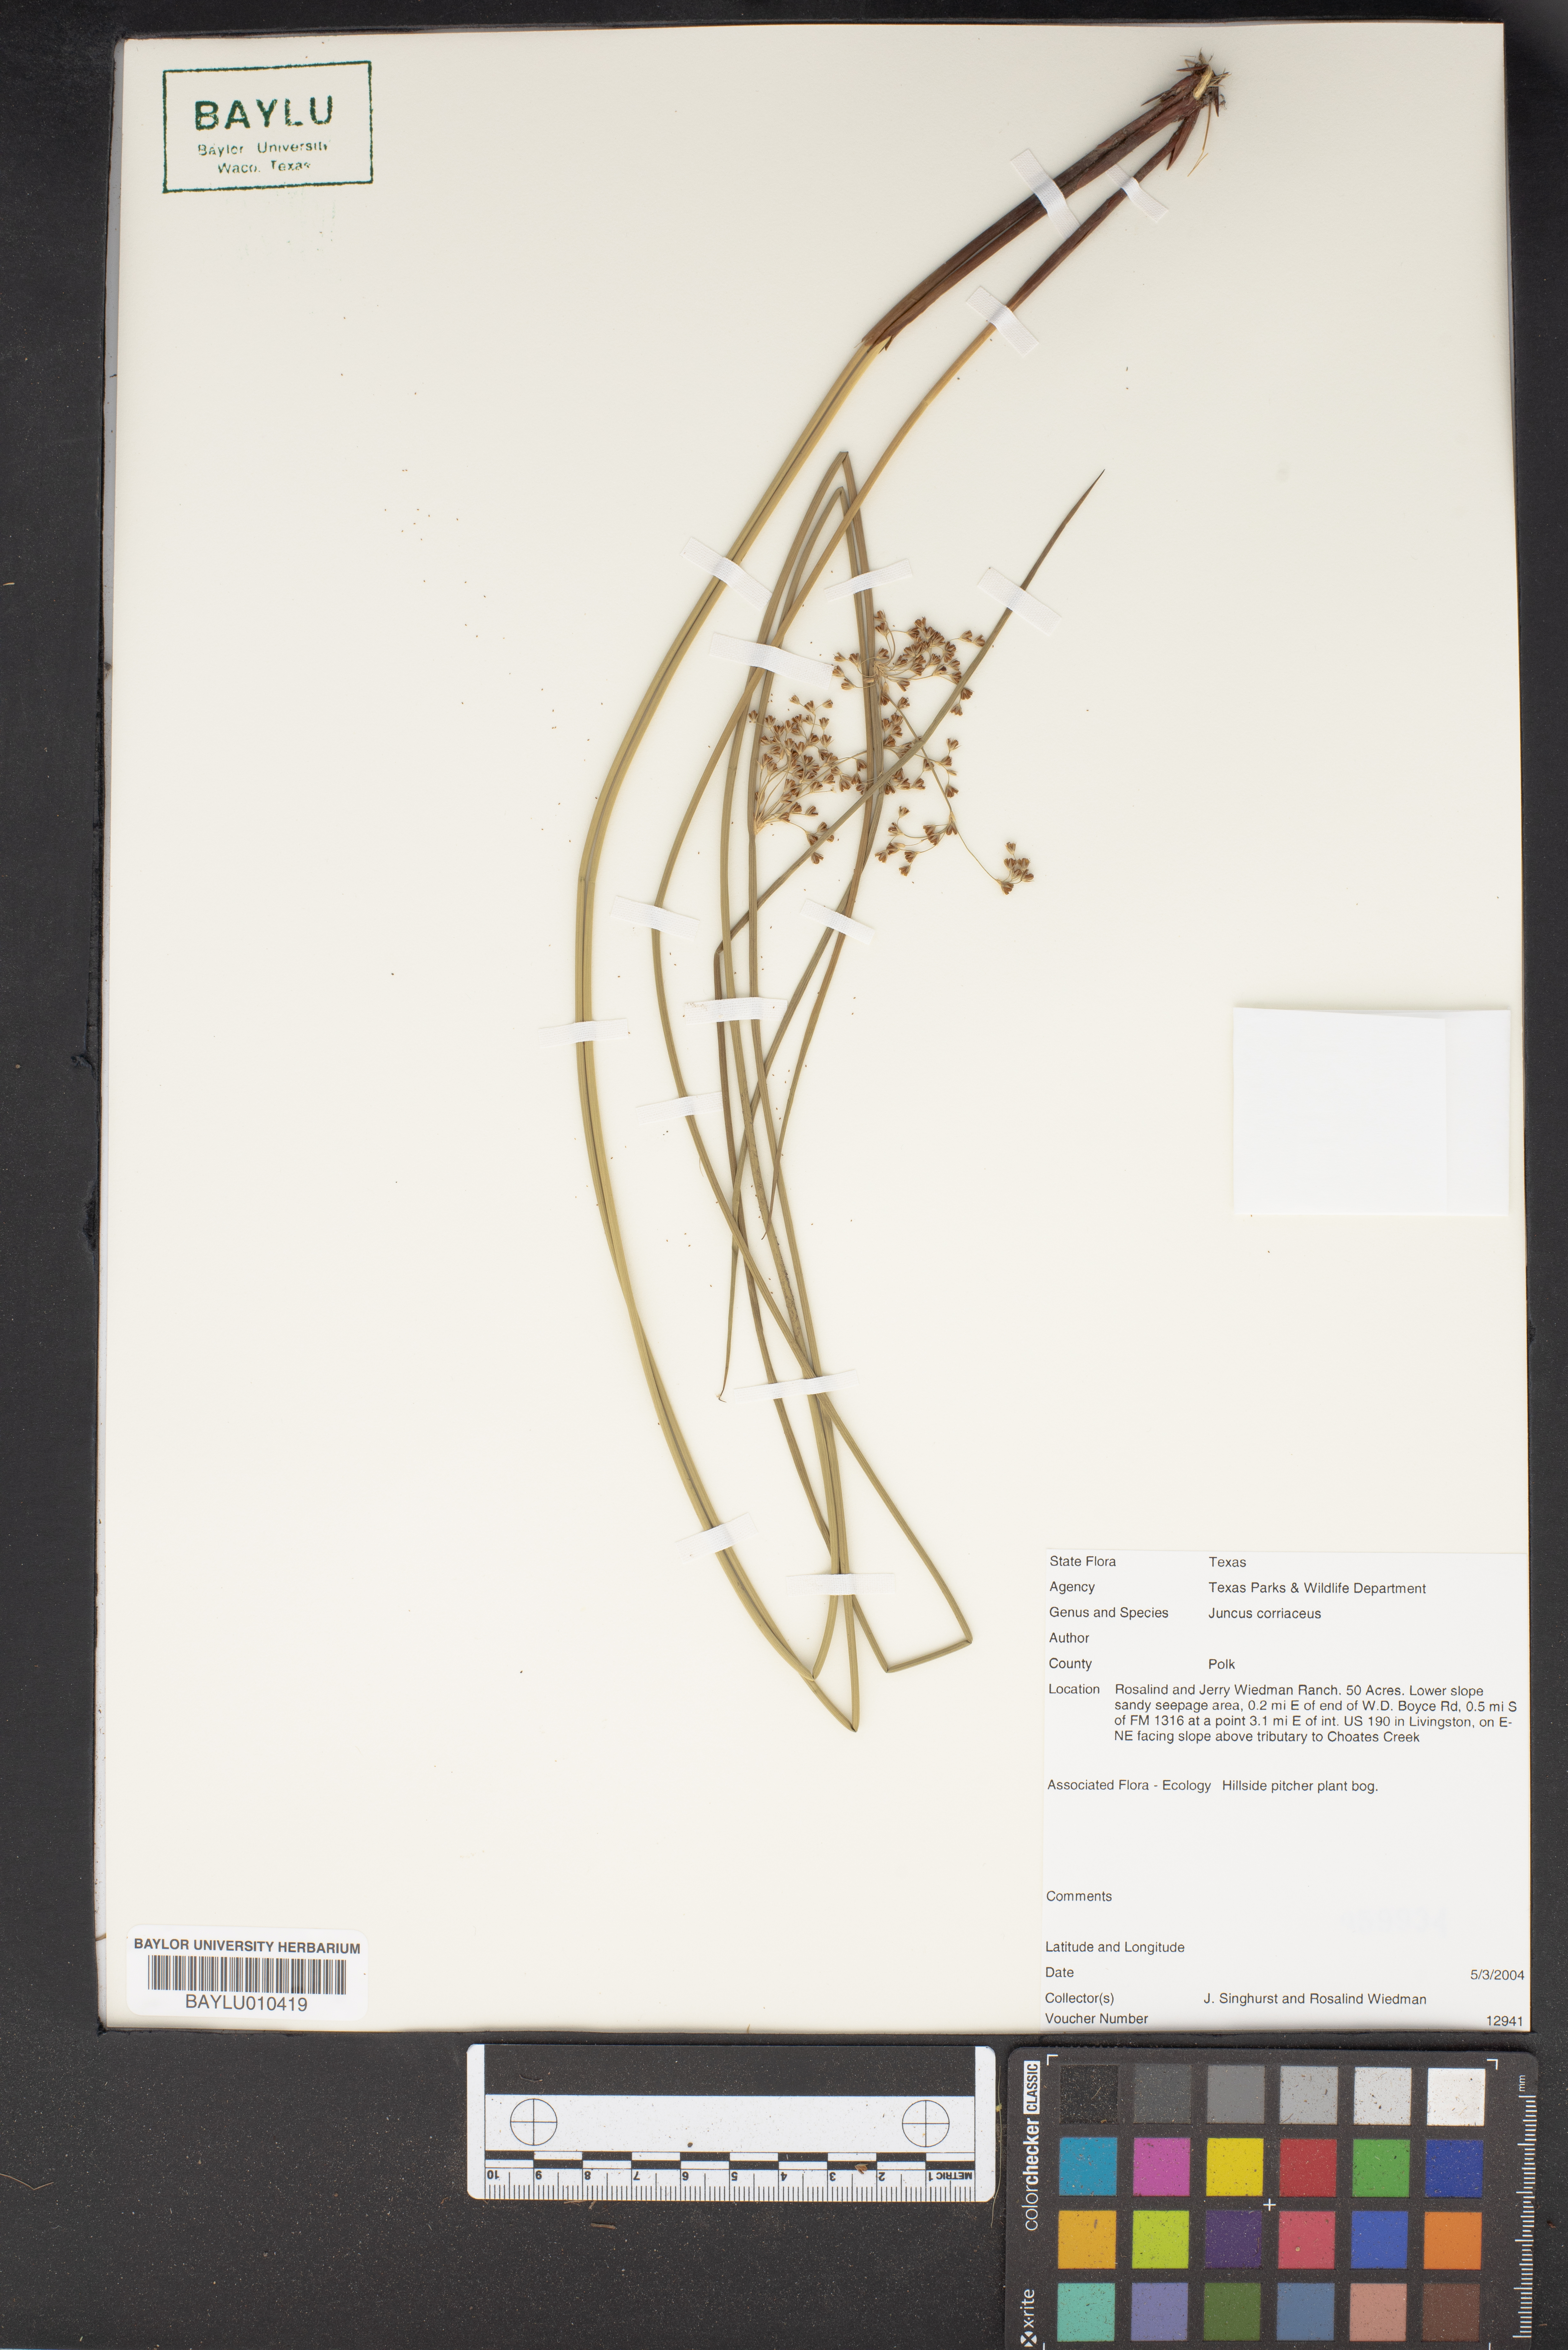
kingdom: Plantae
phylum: Tracheophyta
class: Liliopsida
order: Poales
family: Juncaceae
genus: Juncus
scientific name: Juncus coriaceus
